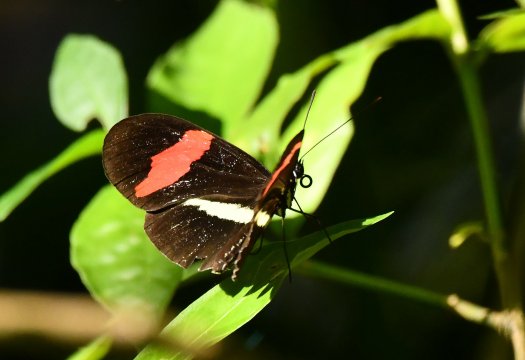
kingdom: Animalia
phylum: Arthropoda
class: Insecta
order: Lepidoptera
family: Nymphalidae
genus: Heliconius
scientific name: Heliconius erato
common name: Erato Heliconian
